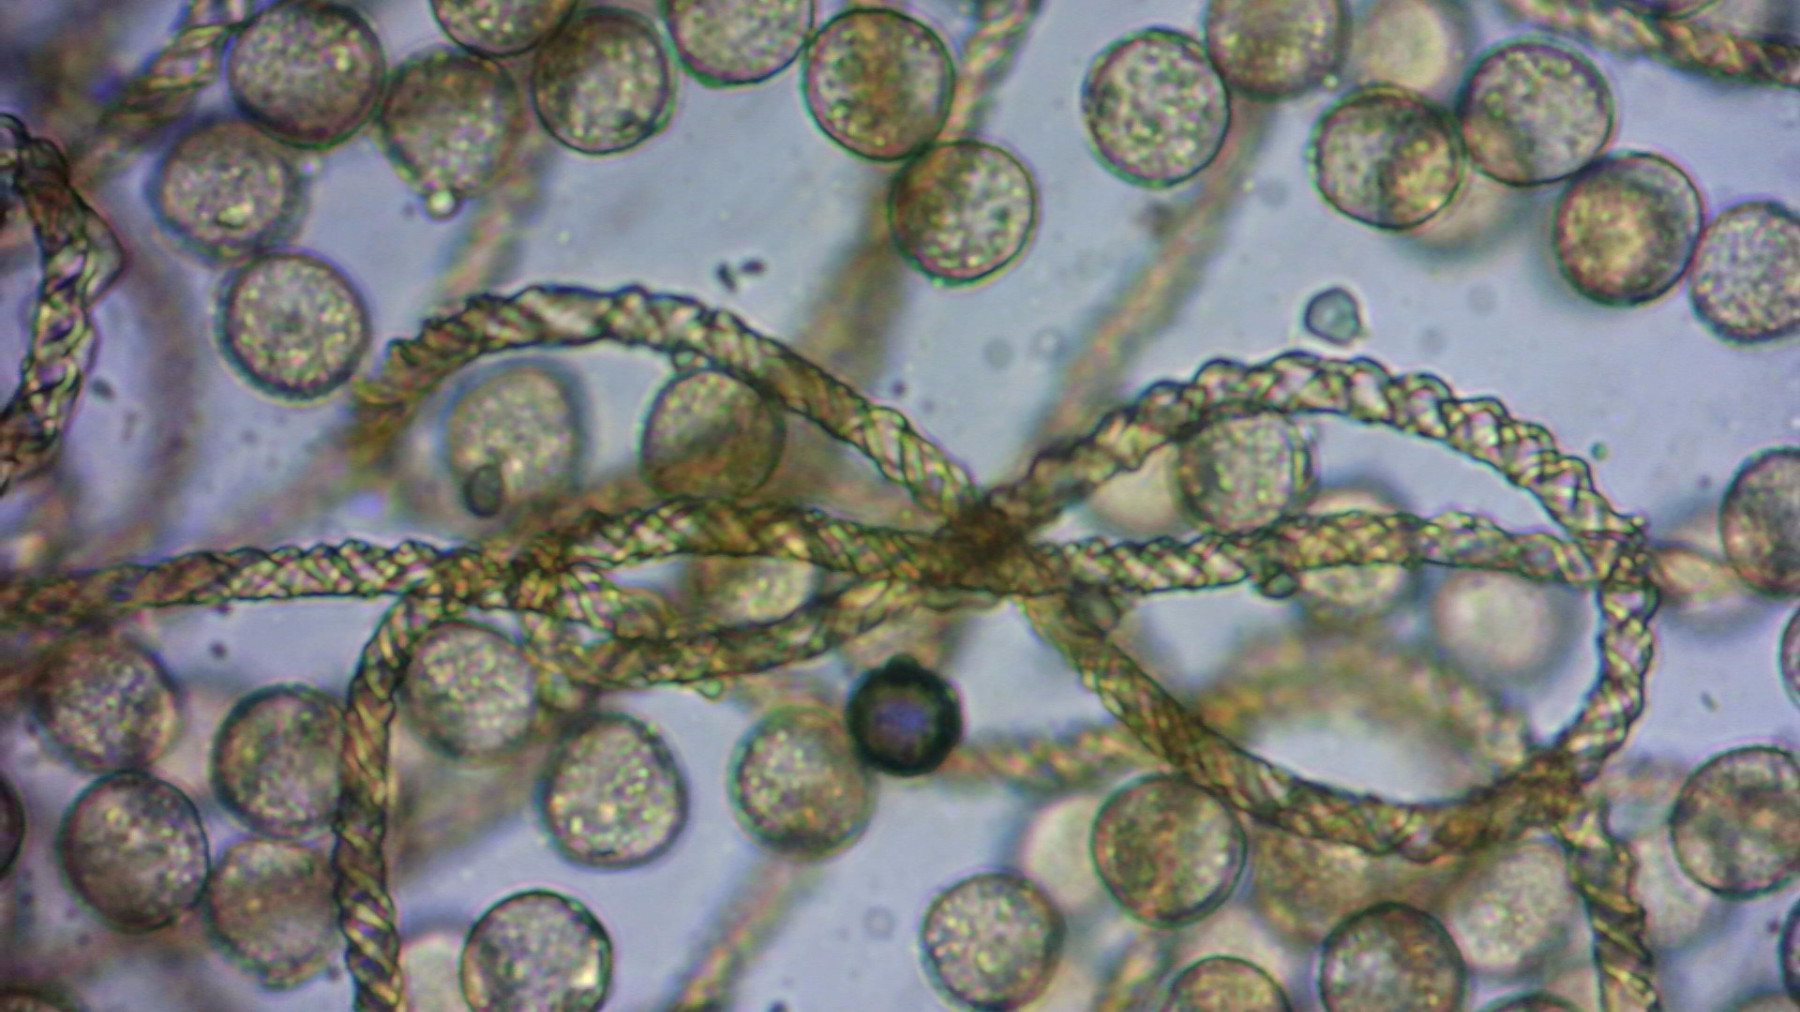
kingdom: Protozoa
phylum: Mycetozoa
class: Myxomycetes
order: Trichiales
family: Trichiaceae
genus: Trichia
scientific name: Trichia varia
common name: foranderlig hårbold
